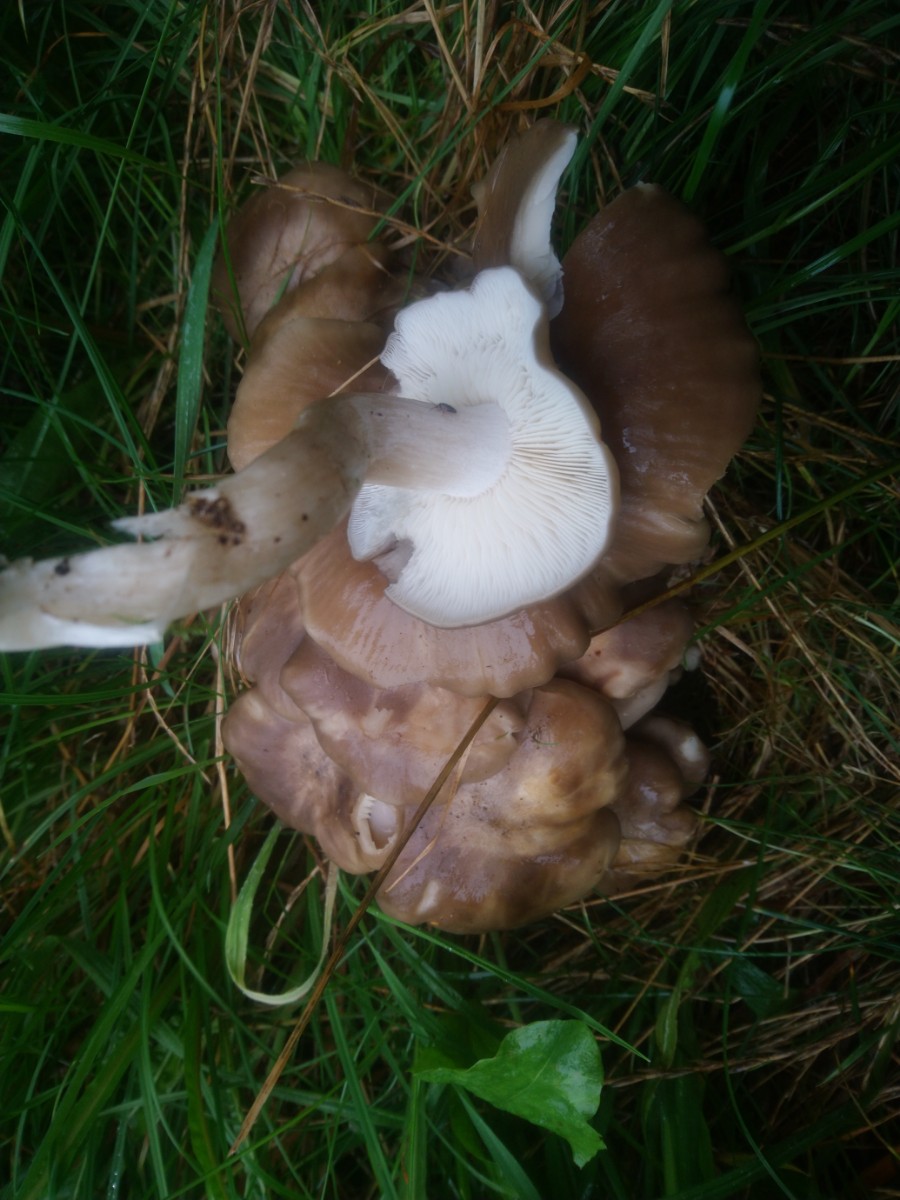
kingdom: Fungi
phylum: Basidiomycota
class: Agaricomycetes
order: Agaricales
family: Lyophyllaceae
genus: Lyophyllum
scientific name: Lyophyllum decastes
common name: røggrå gråblad
